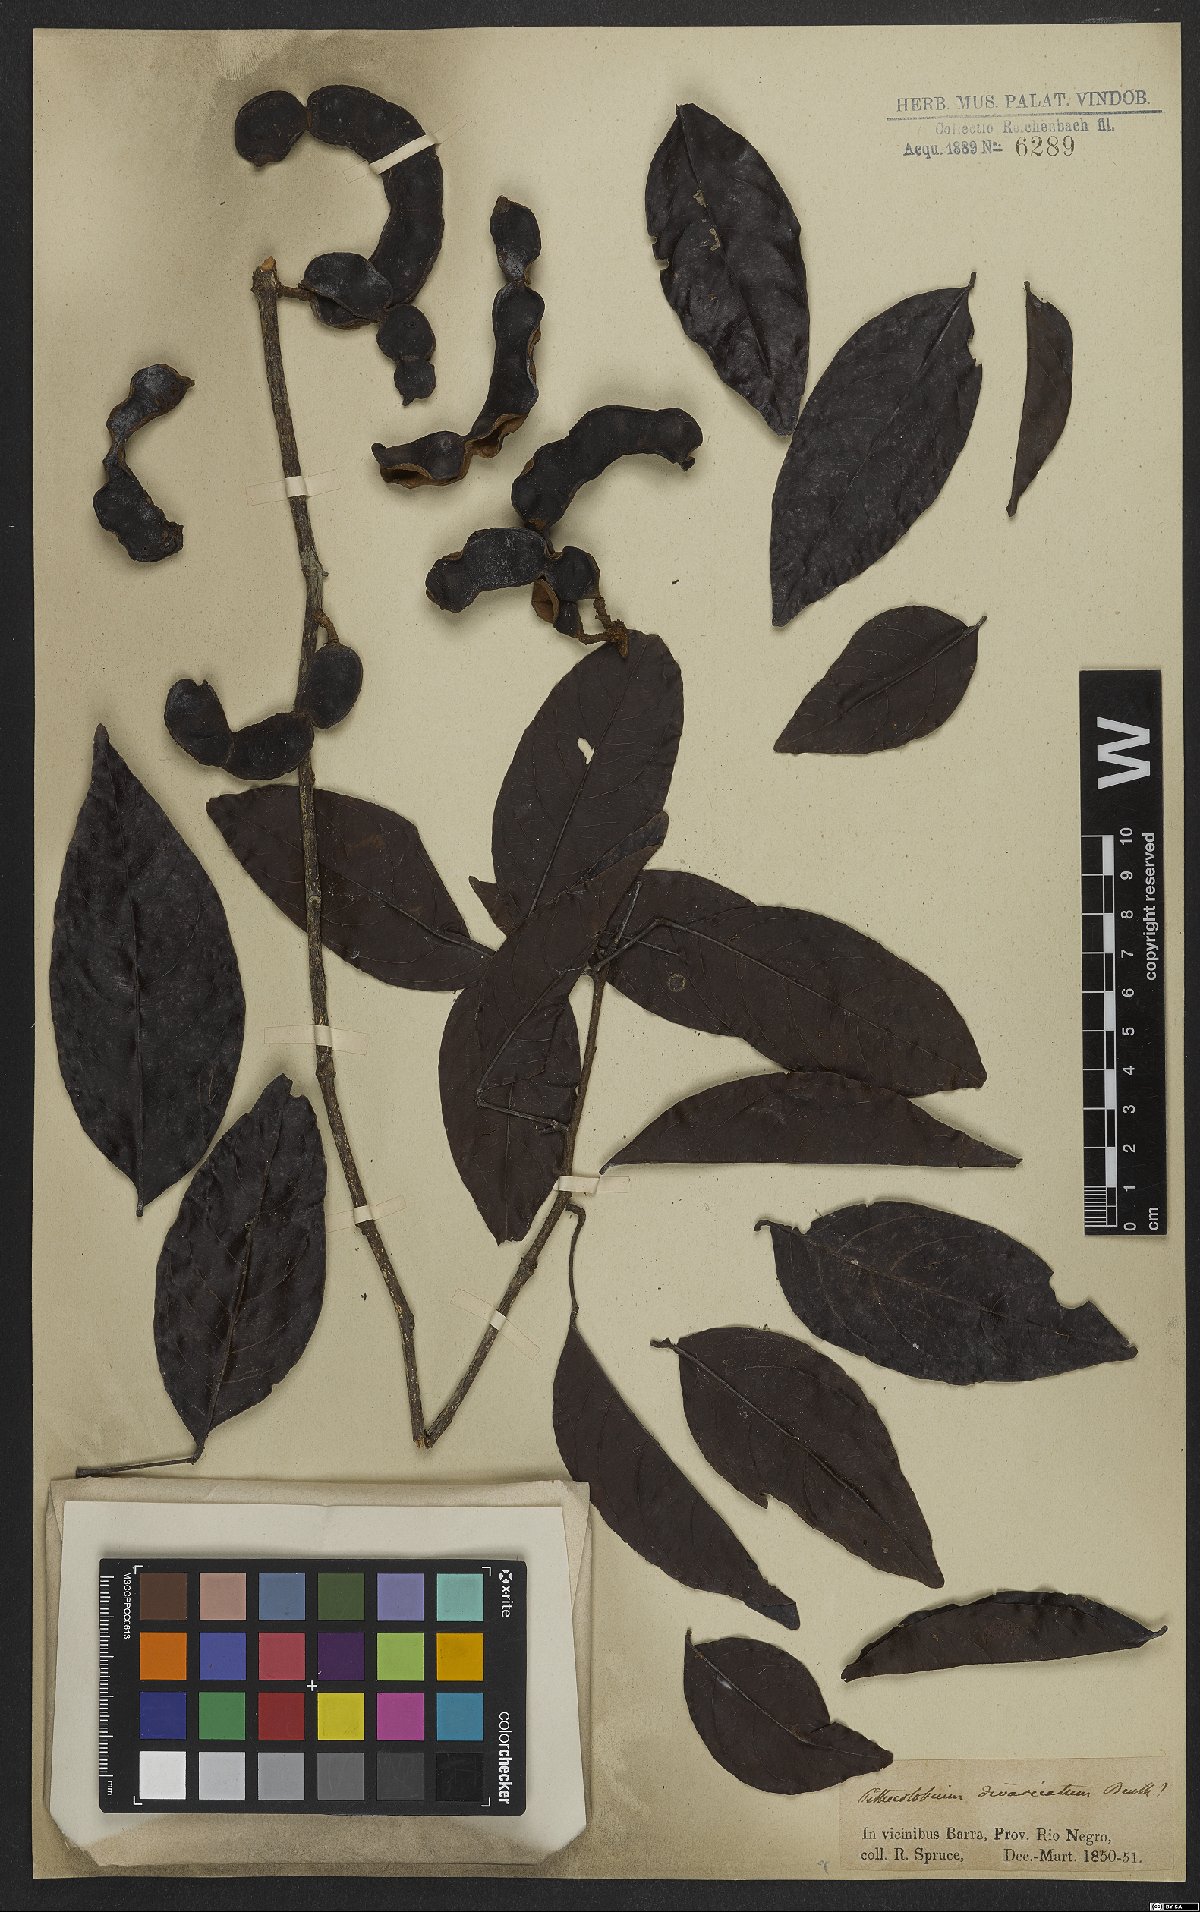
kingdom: Plantae
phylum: Tracheophyta
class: Magnoliopsida
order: Fabales
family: Fabaceae
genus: Zygia
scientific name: Zygia cataractae
